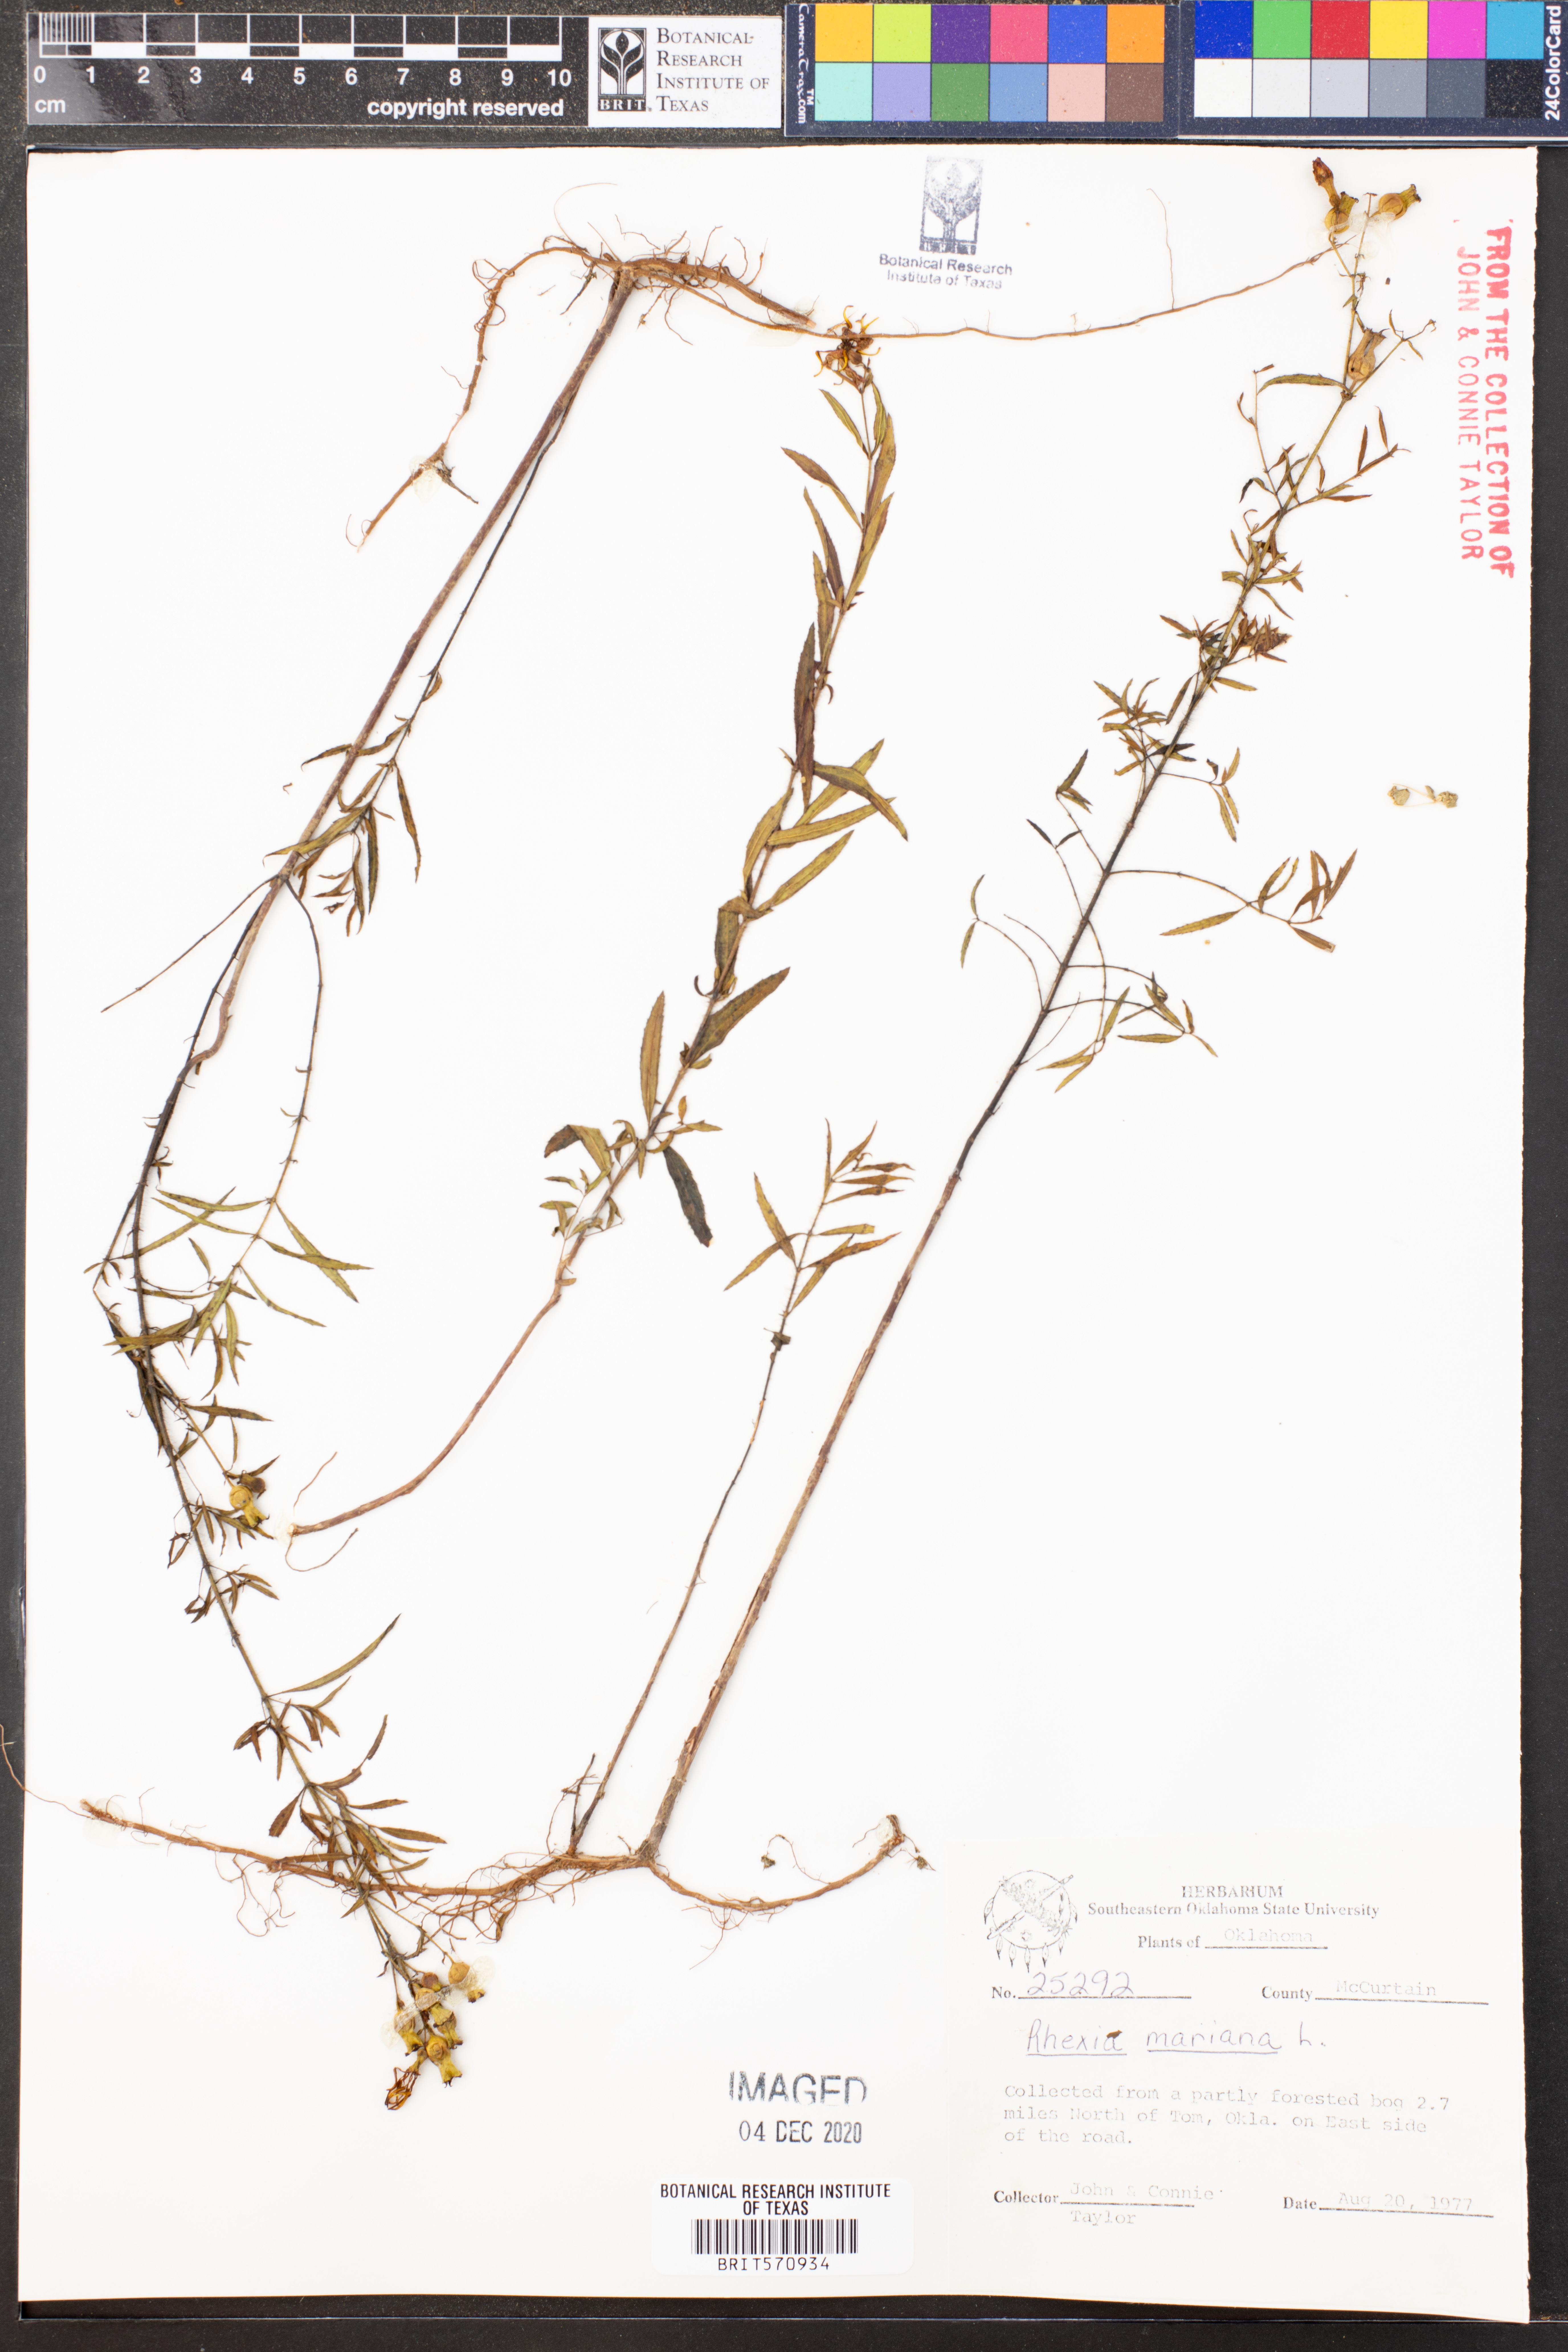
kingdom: Plantae
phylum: Tracheophyta
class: Magnoliopsida
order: Myrtales
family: Melastomataceae
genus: Rhexia
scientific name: Rhexia mariana
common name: Dull meadow-pitcher
